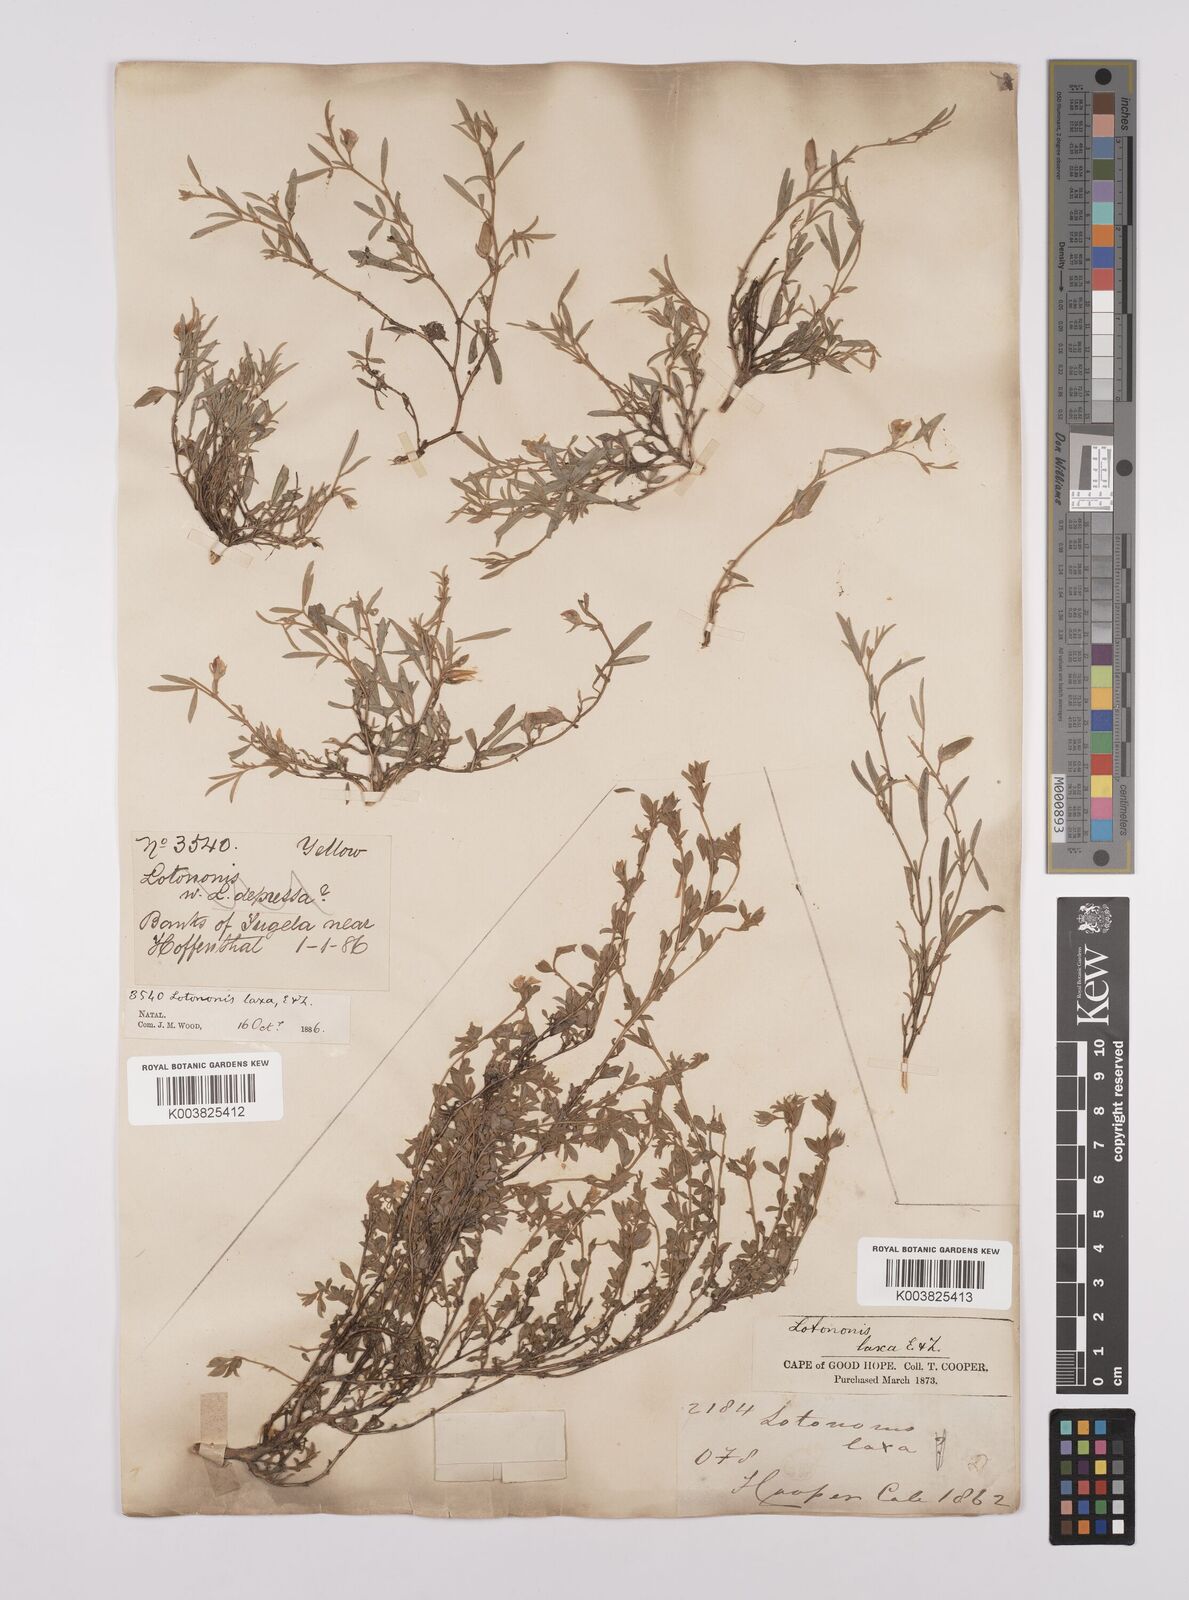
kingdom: Plantae
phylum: Tracheophyta
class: Magnoliopsida
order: Fabales
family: Fabaceae
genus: Lotononis
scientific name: Lotononis laxa
